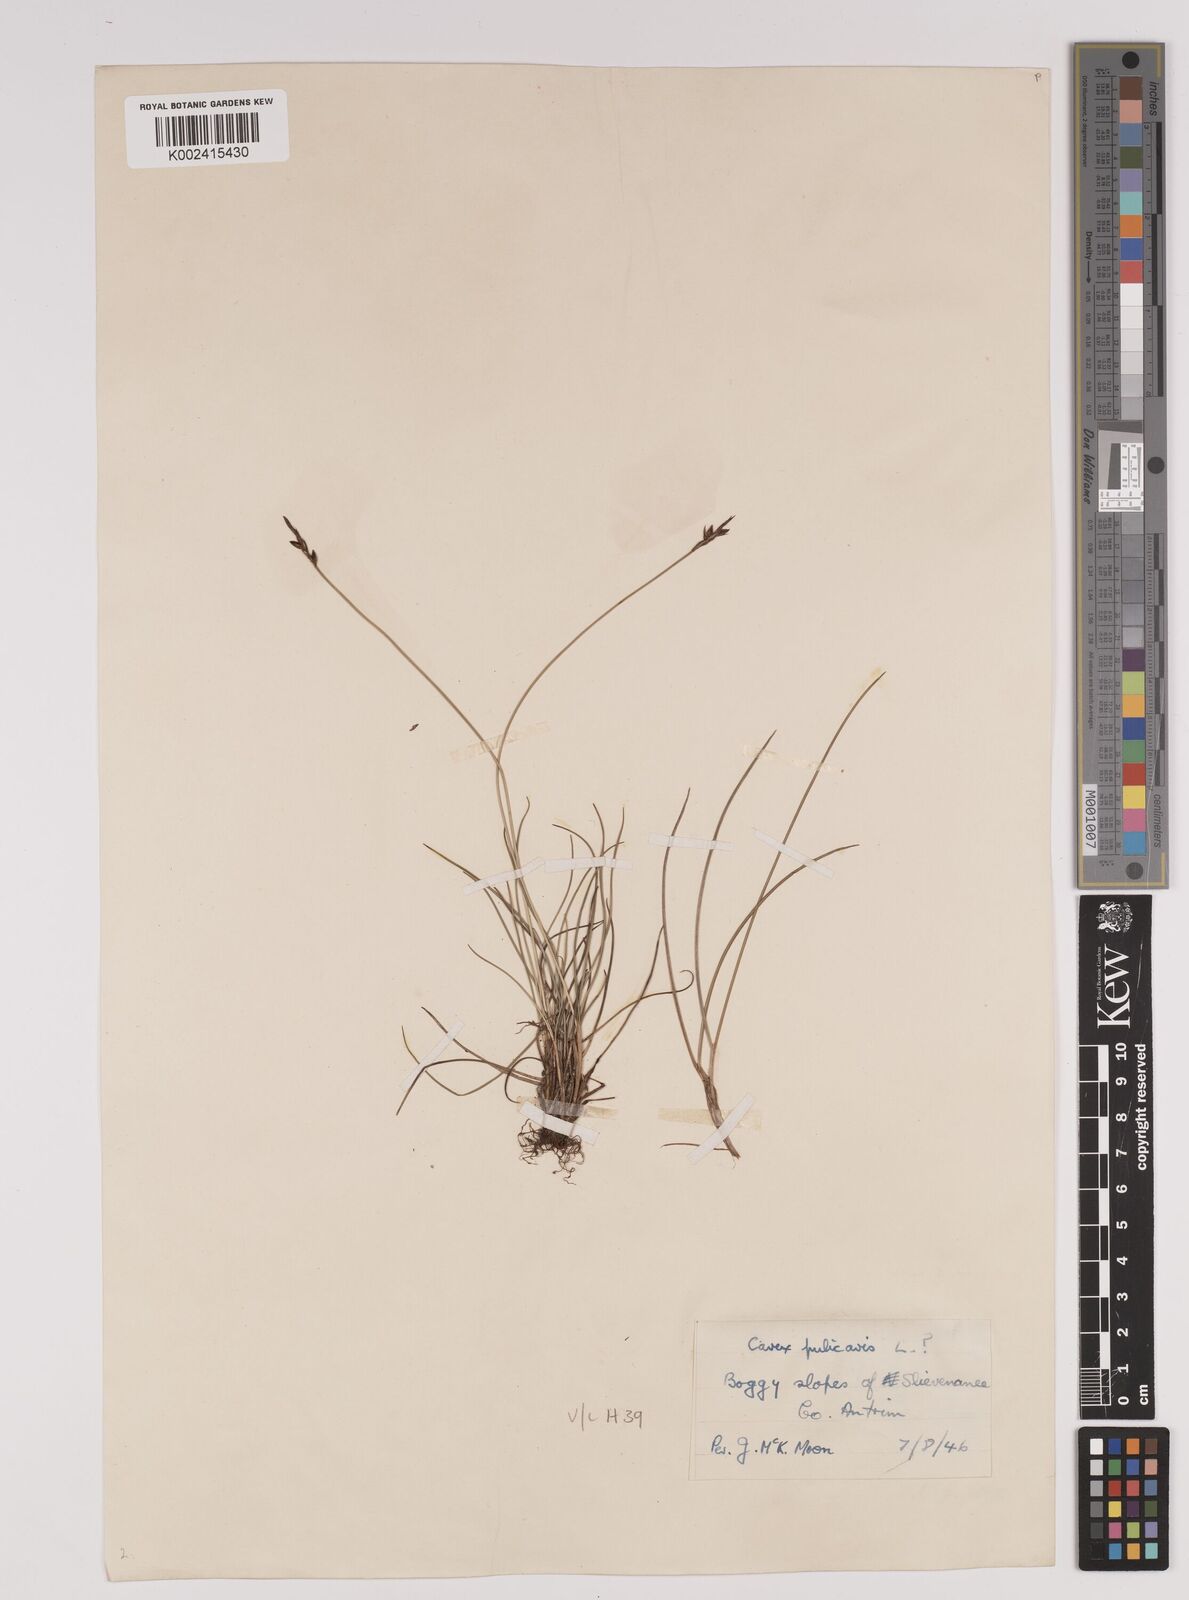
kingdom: Plantae
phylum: Tracheophyta
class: Liliopsida
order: Poales
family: Cyperaceae
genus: Carex
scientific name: Carex pulicaris
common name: Flea sedge
